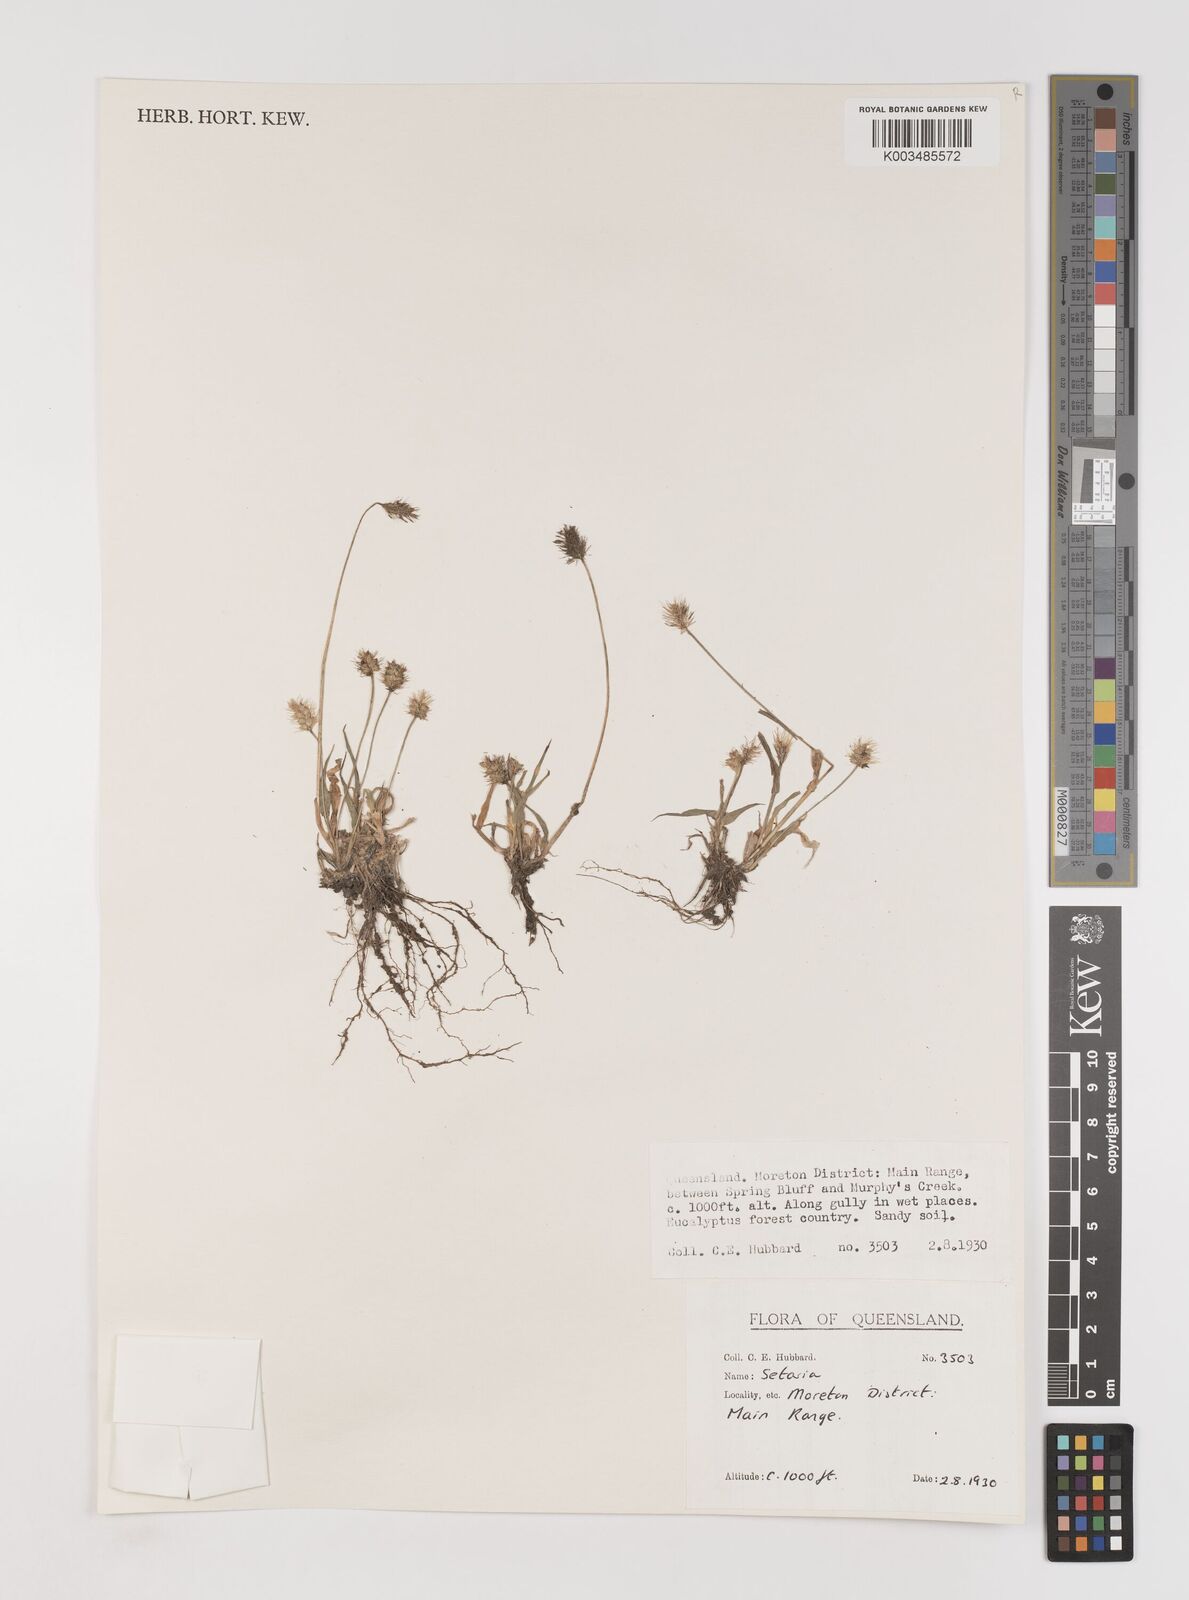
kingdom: Plantae
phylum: Tracheophyta
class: Liliopsida
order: Poales
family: Poaceae
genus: Setaria
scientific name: Setaria
